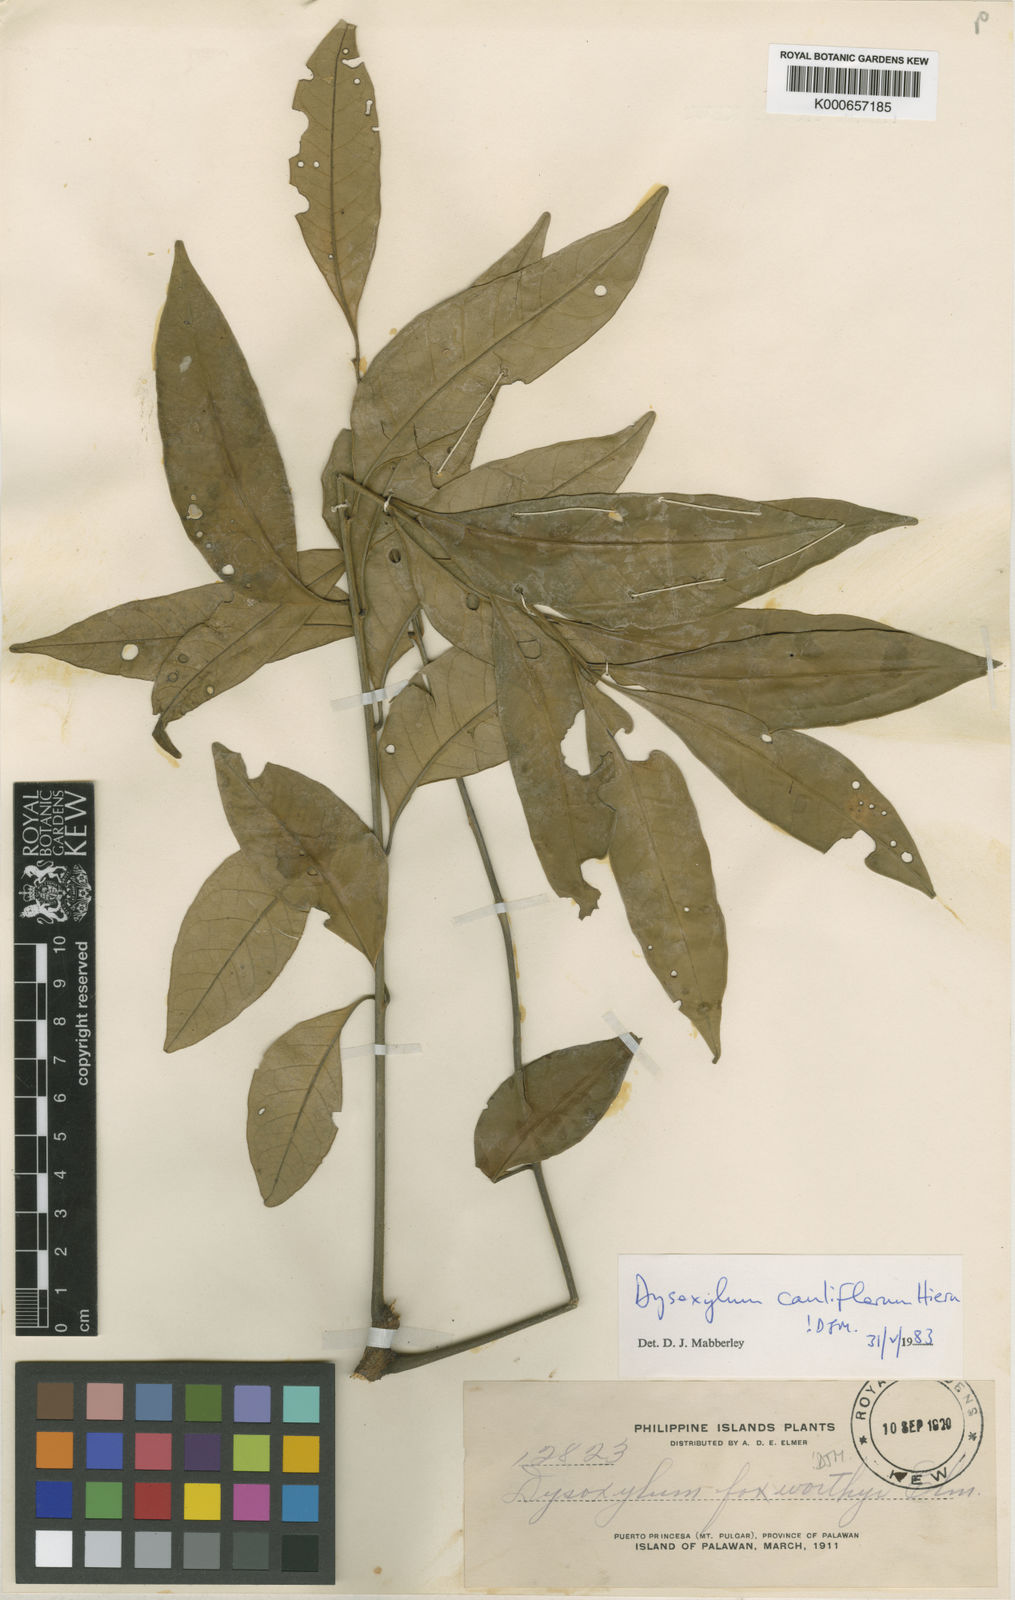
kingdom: Plantae
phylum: Tracheophyta
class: Magnoliopsida
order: Sapindales
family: Meliaceae
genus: Epicharis
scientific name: Epicharis cuneata
